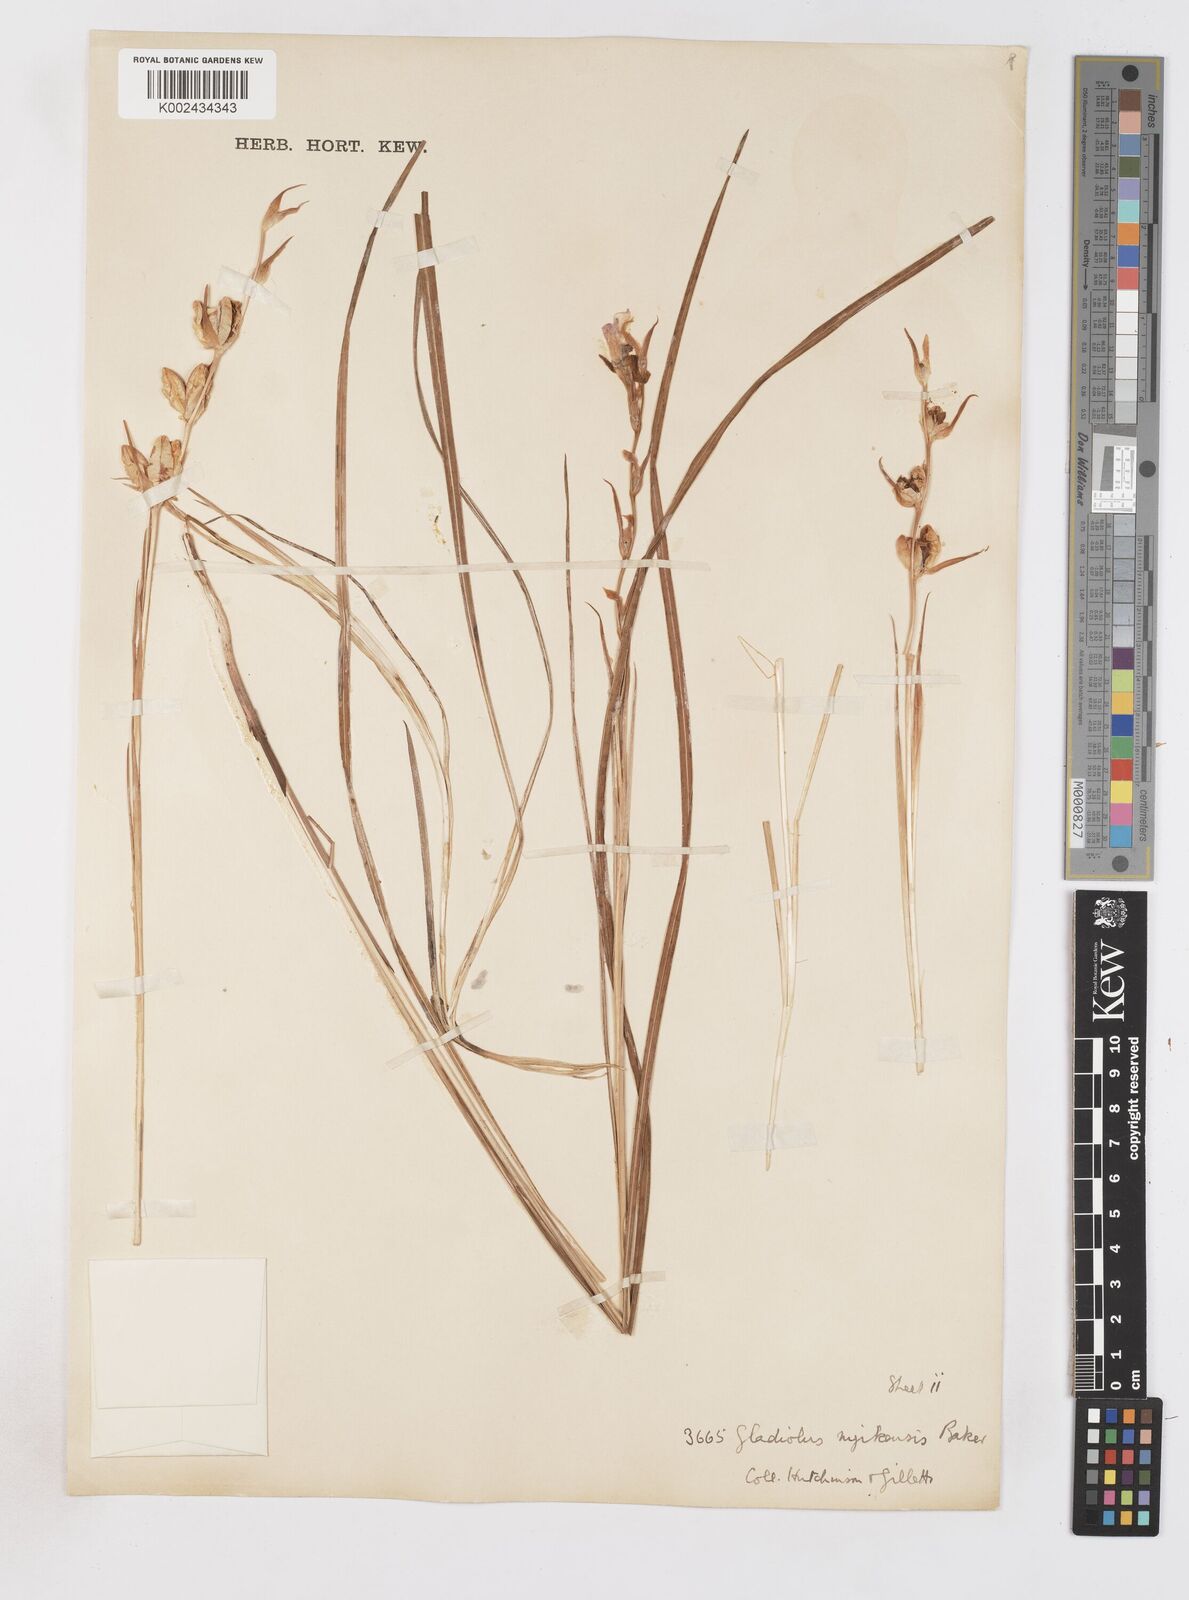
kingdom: Plantae
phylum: Tracheophyta
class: Liliopsida
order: Asparagales
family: Iridaceae
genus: Gladiolus
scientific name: Gladiolus erectiflorus
